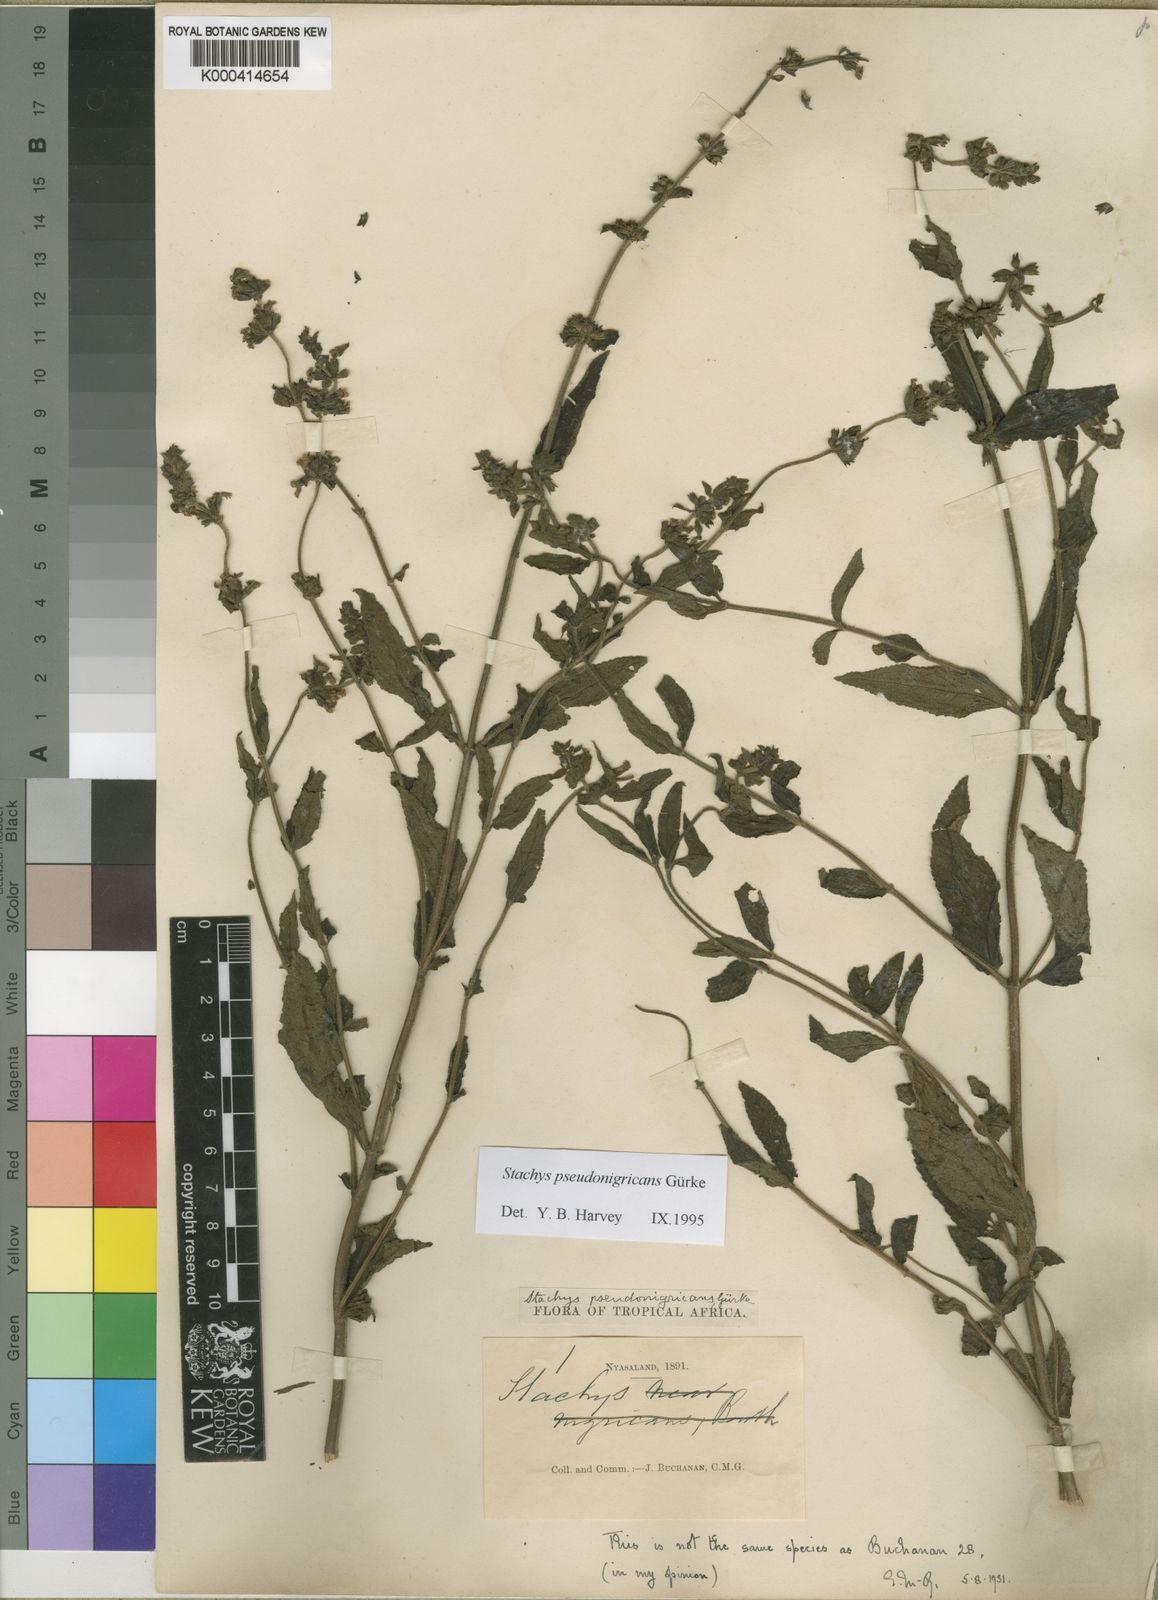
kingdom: Plantae
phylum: Tracheophyta
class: Magnoliopsida
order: Lamiales
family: Lamiaceae
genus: Stachys
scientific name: Stachys
